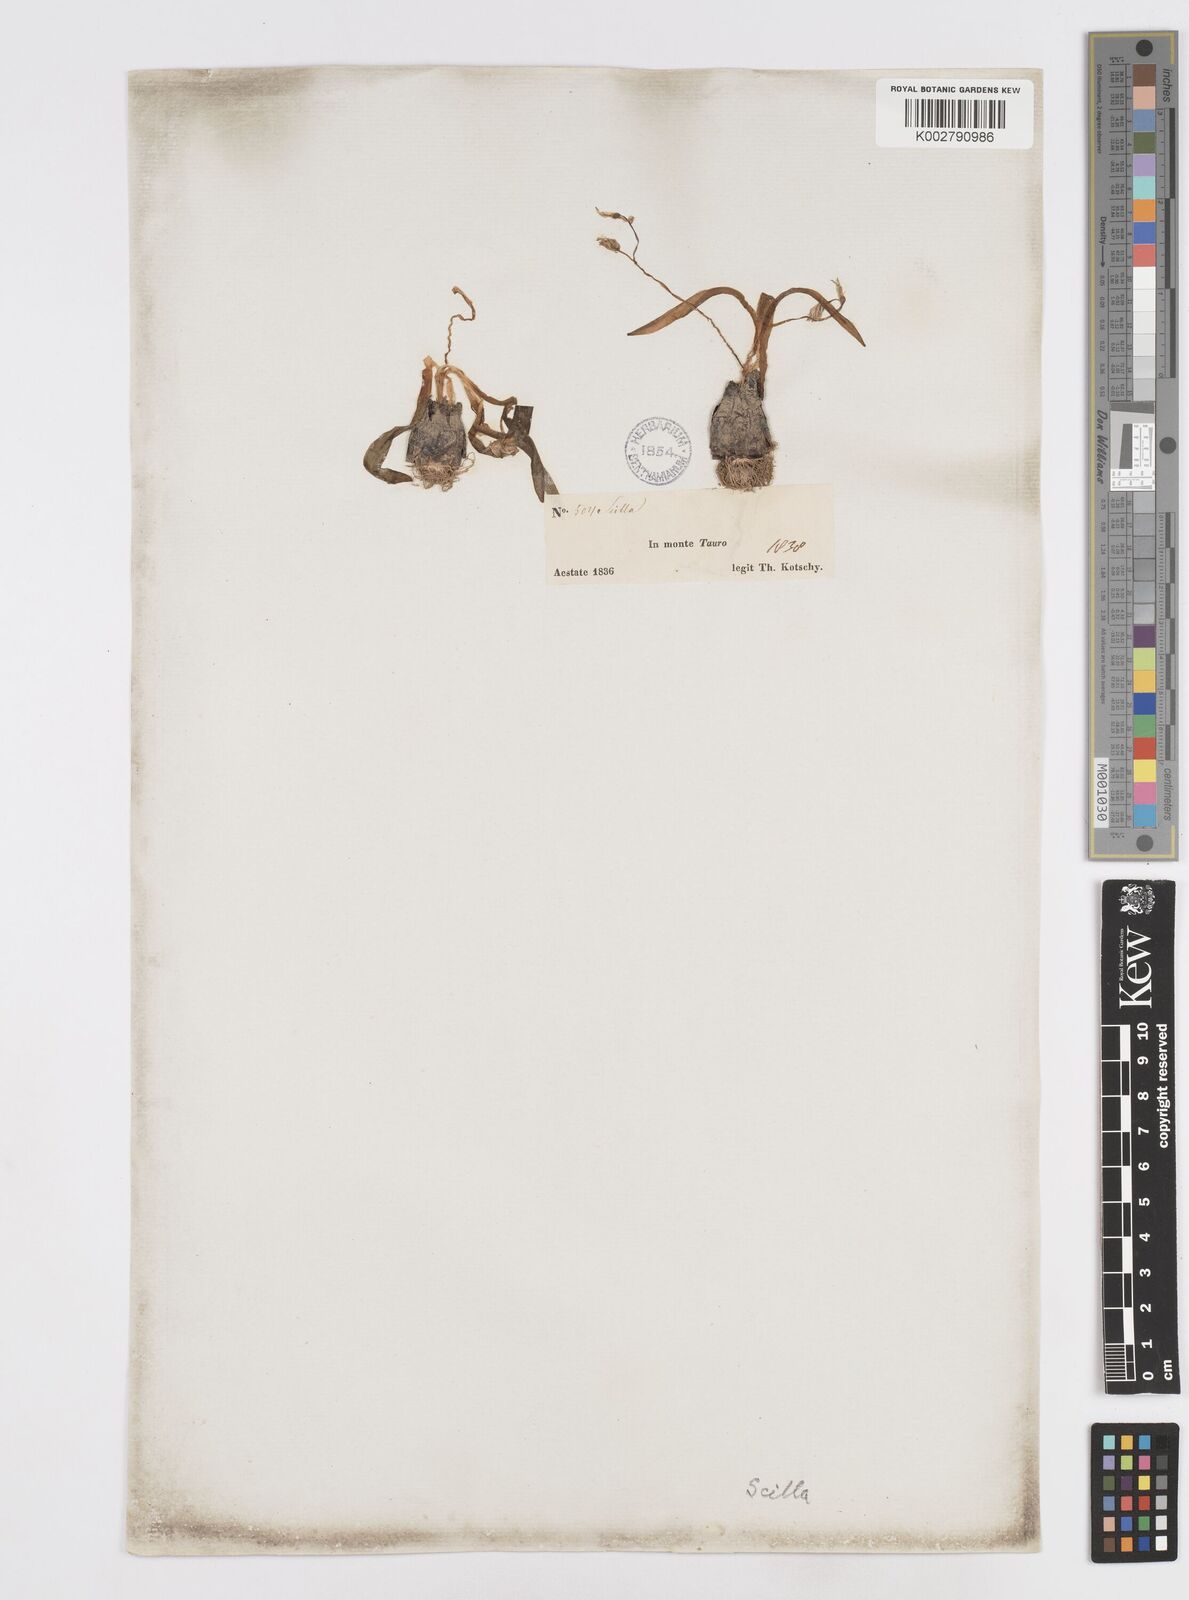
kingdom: Plantae
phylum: Tracheophyta
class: Liliopsida
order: Asparagales
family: Asparagaceae
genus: Scilla
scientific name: Scilla
